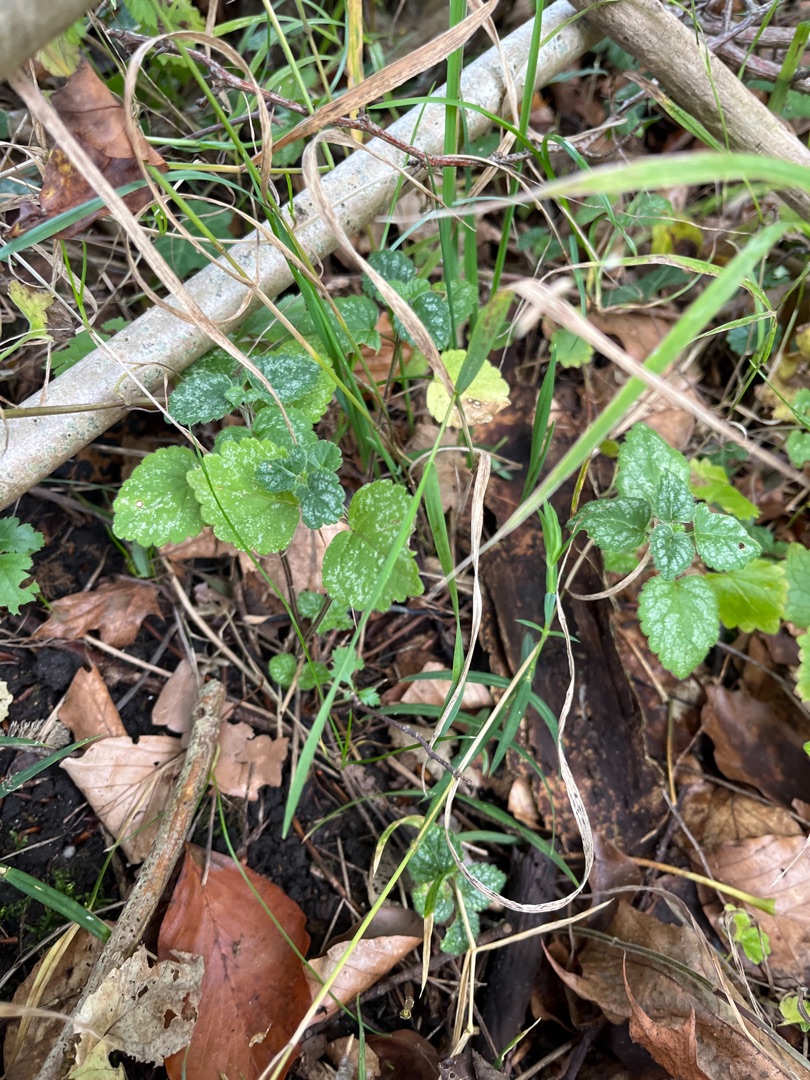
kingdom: Plantae
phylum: Tracheophyta
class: Magnoliopsida
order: Lamiales
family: Lamiaceae
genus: Lamium
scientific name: Lamium galeobdolon
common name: Guldnælde
